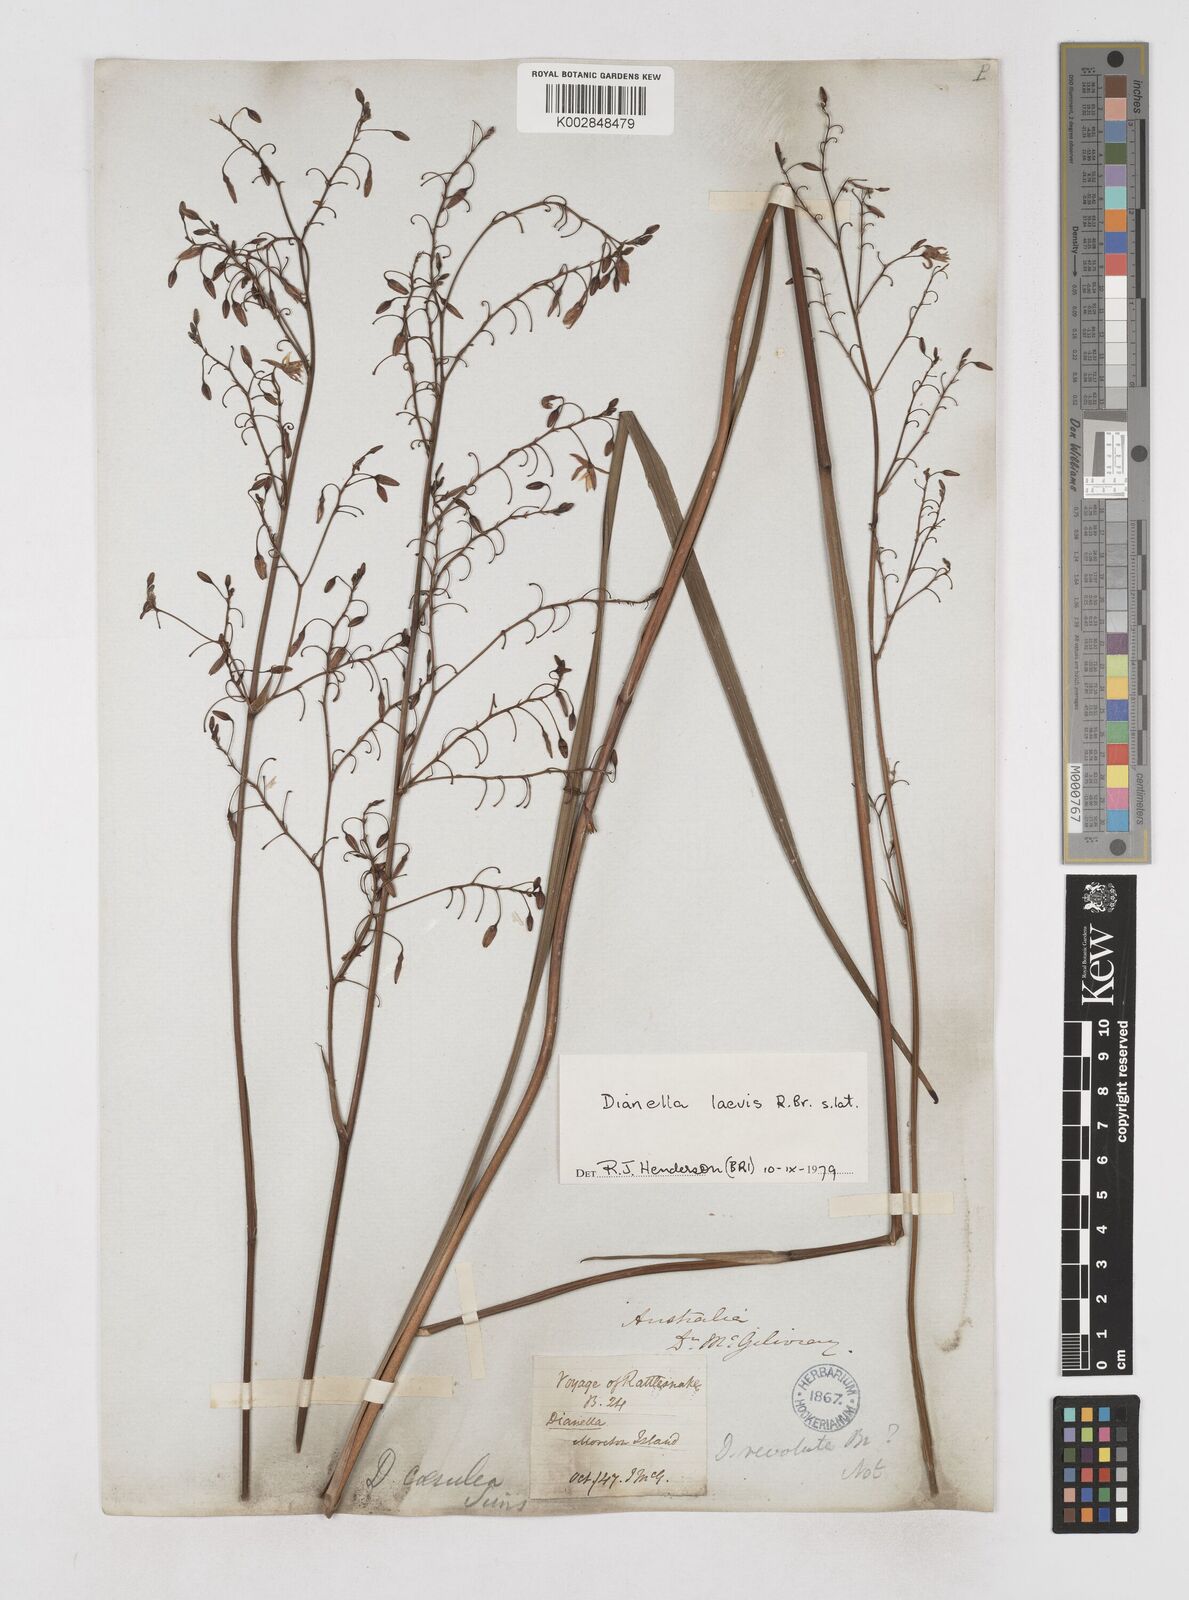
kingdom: Plantae
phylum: Tracheophyta
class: Liliopsida
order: Asparagales
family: Asphodelaceae
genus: Dianella
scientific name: Dianella longifolia
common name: Blue flax-lily
